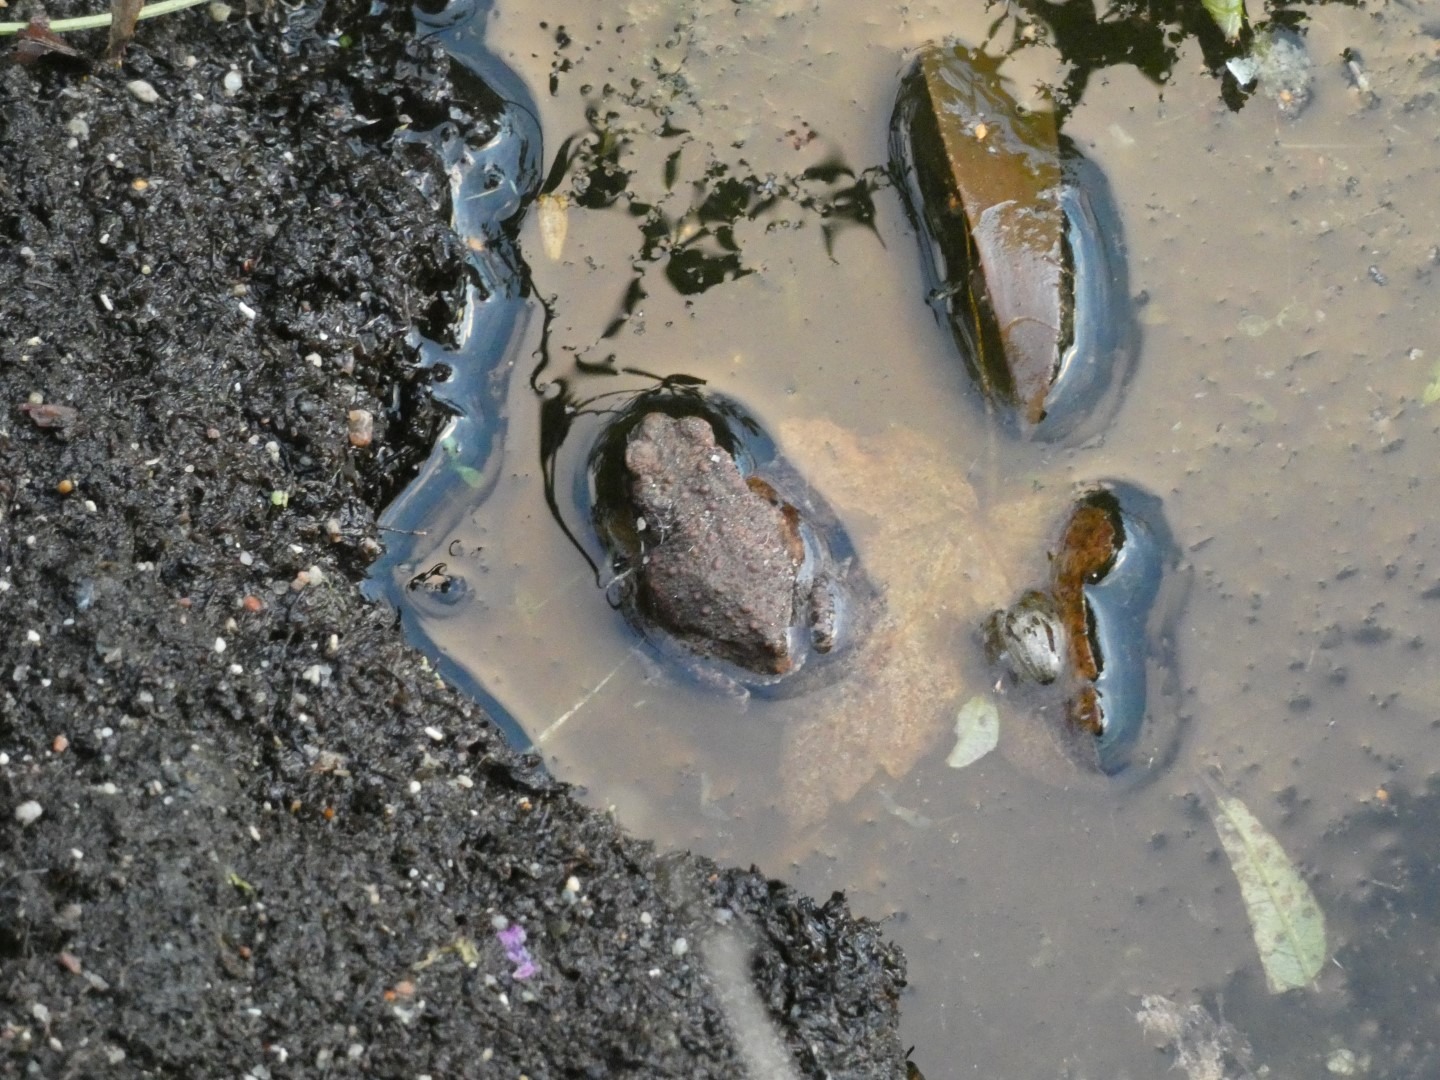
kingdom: Animalia
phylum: Chordata
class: Amphibia
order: Anura
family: Bufonidae
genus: Bufo
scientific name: Bufo bufo
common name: Skrubtudse
